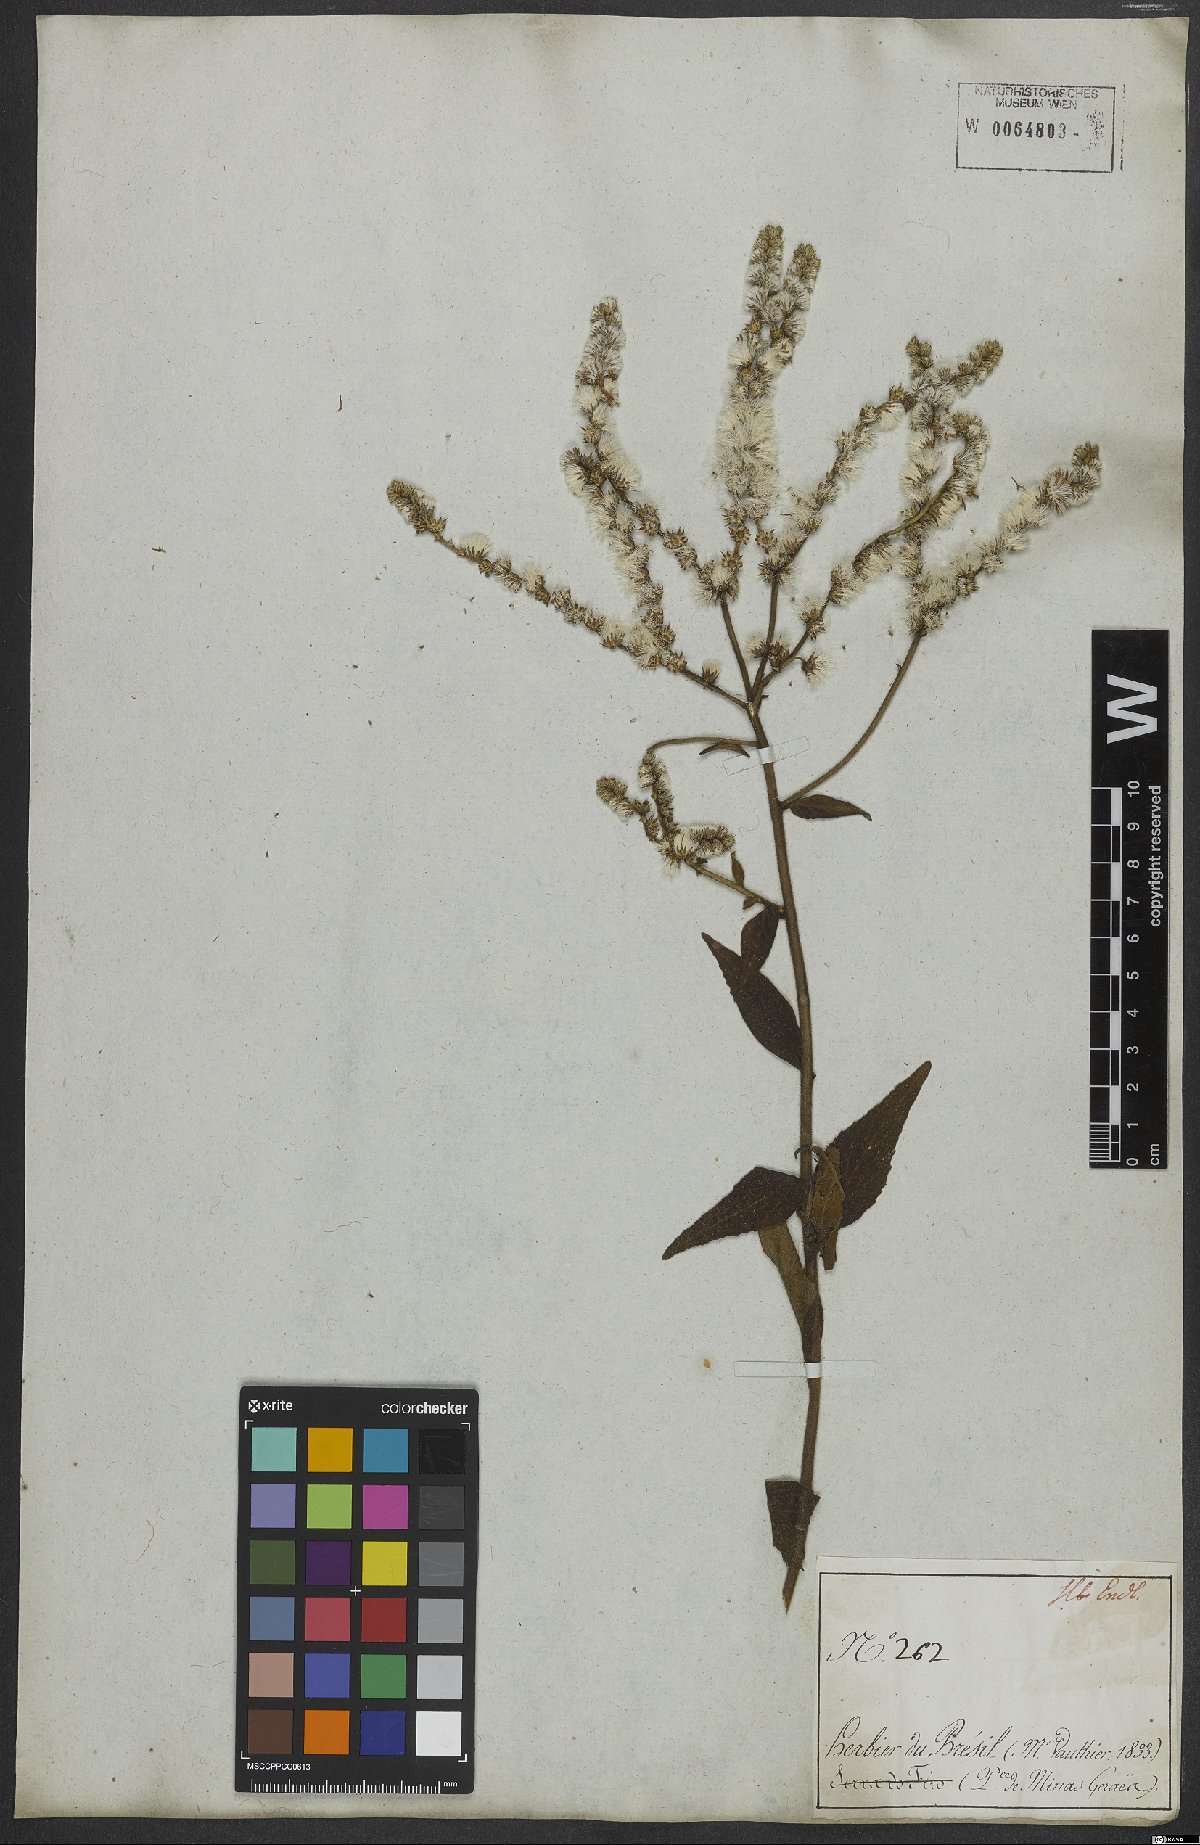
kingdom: Plantae
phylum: Tracheophyta
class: Magnoliopsida
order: Asterales
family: Asteraceae
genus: Cyrtocymura
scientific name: Cyrtocymura scorpioides
